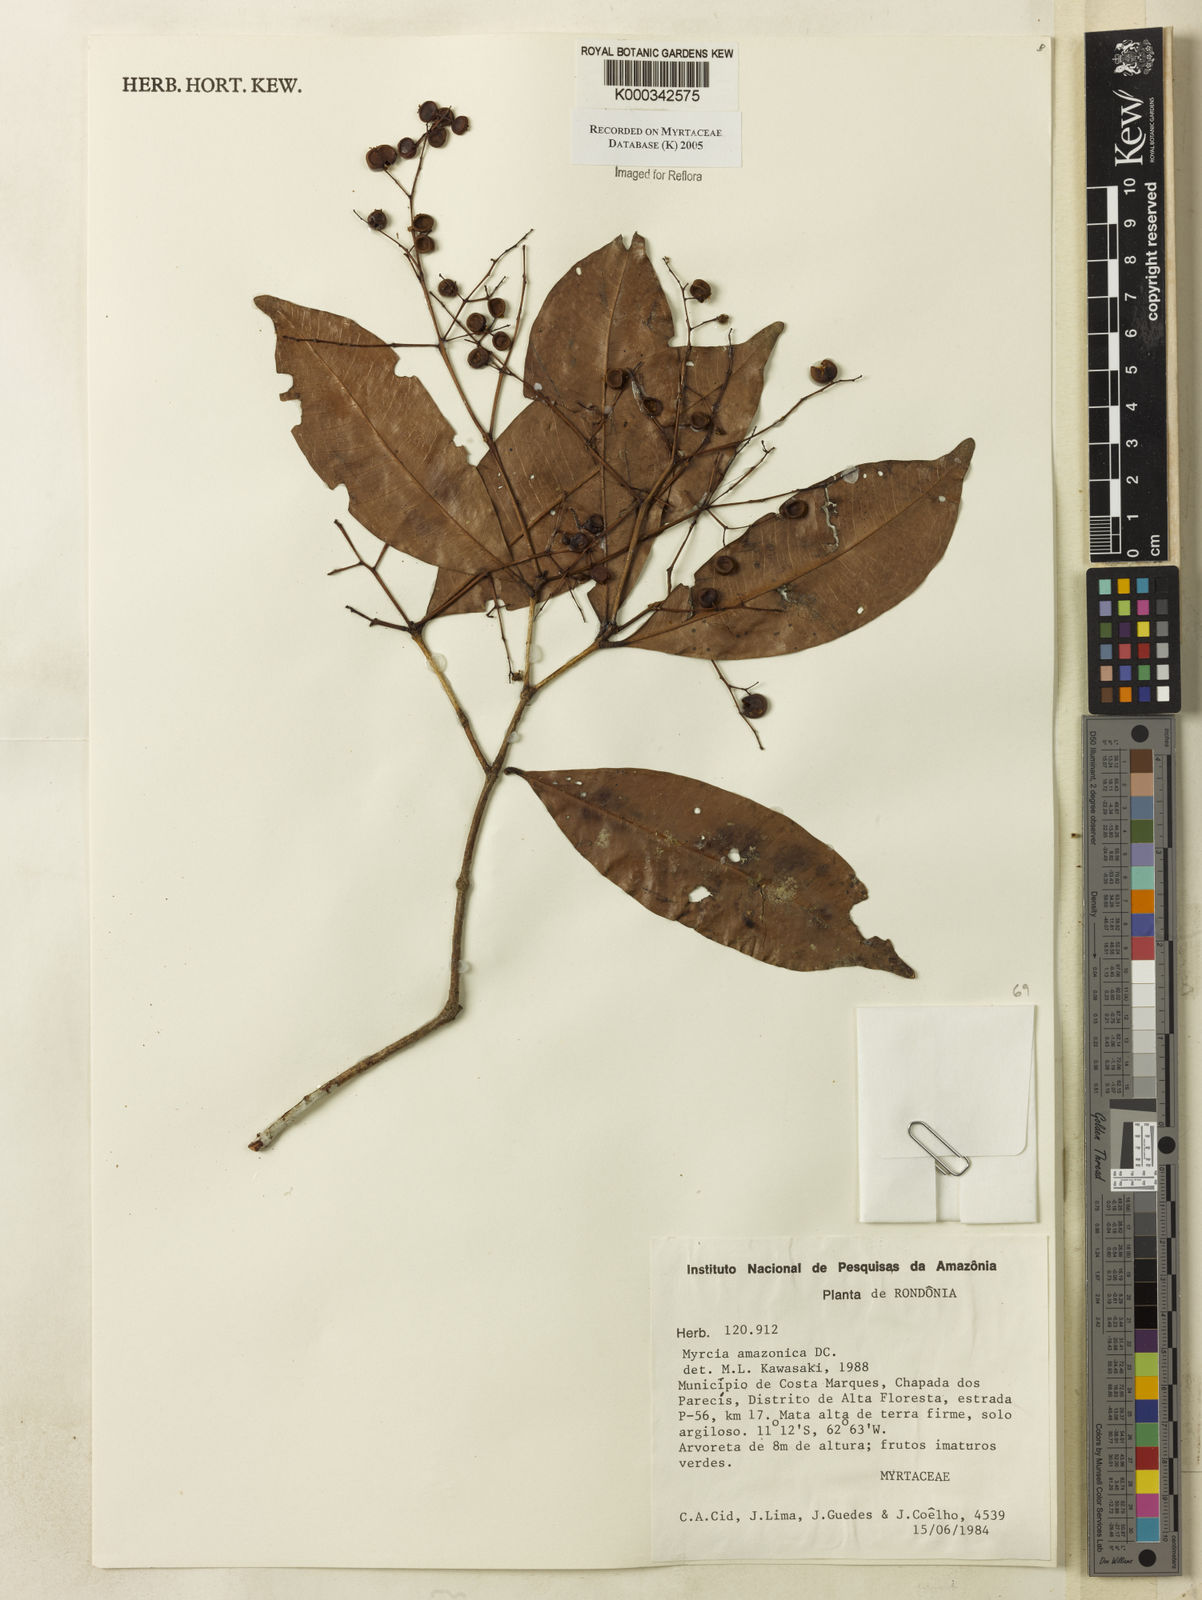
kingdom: Plantae
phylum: Tracheophyta
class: Magnoliopsida
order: Myrtales
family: Myrtaceae
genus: Myrcia
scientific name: Myrcia amazonica
